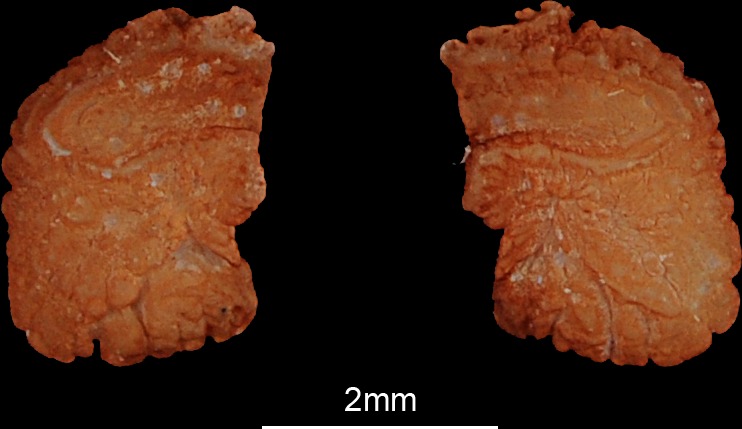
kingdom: Animalia
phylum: Chordata
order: Siluriformes
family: Claroteidae
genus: Clarotes
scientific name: Clarotes laticeps
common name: Spiny catfish
